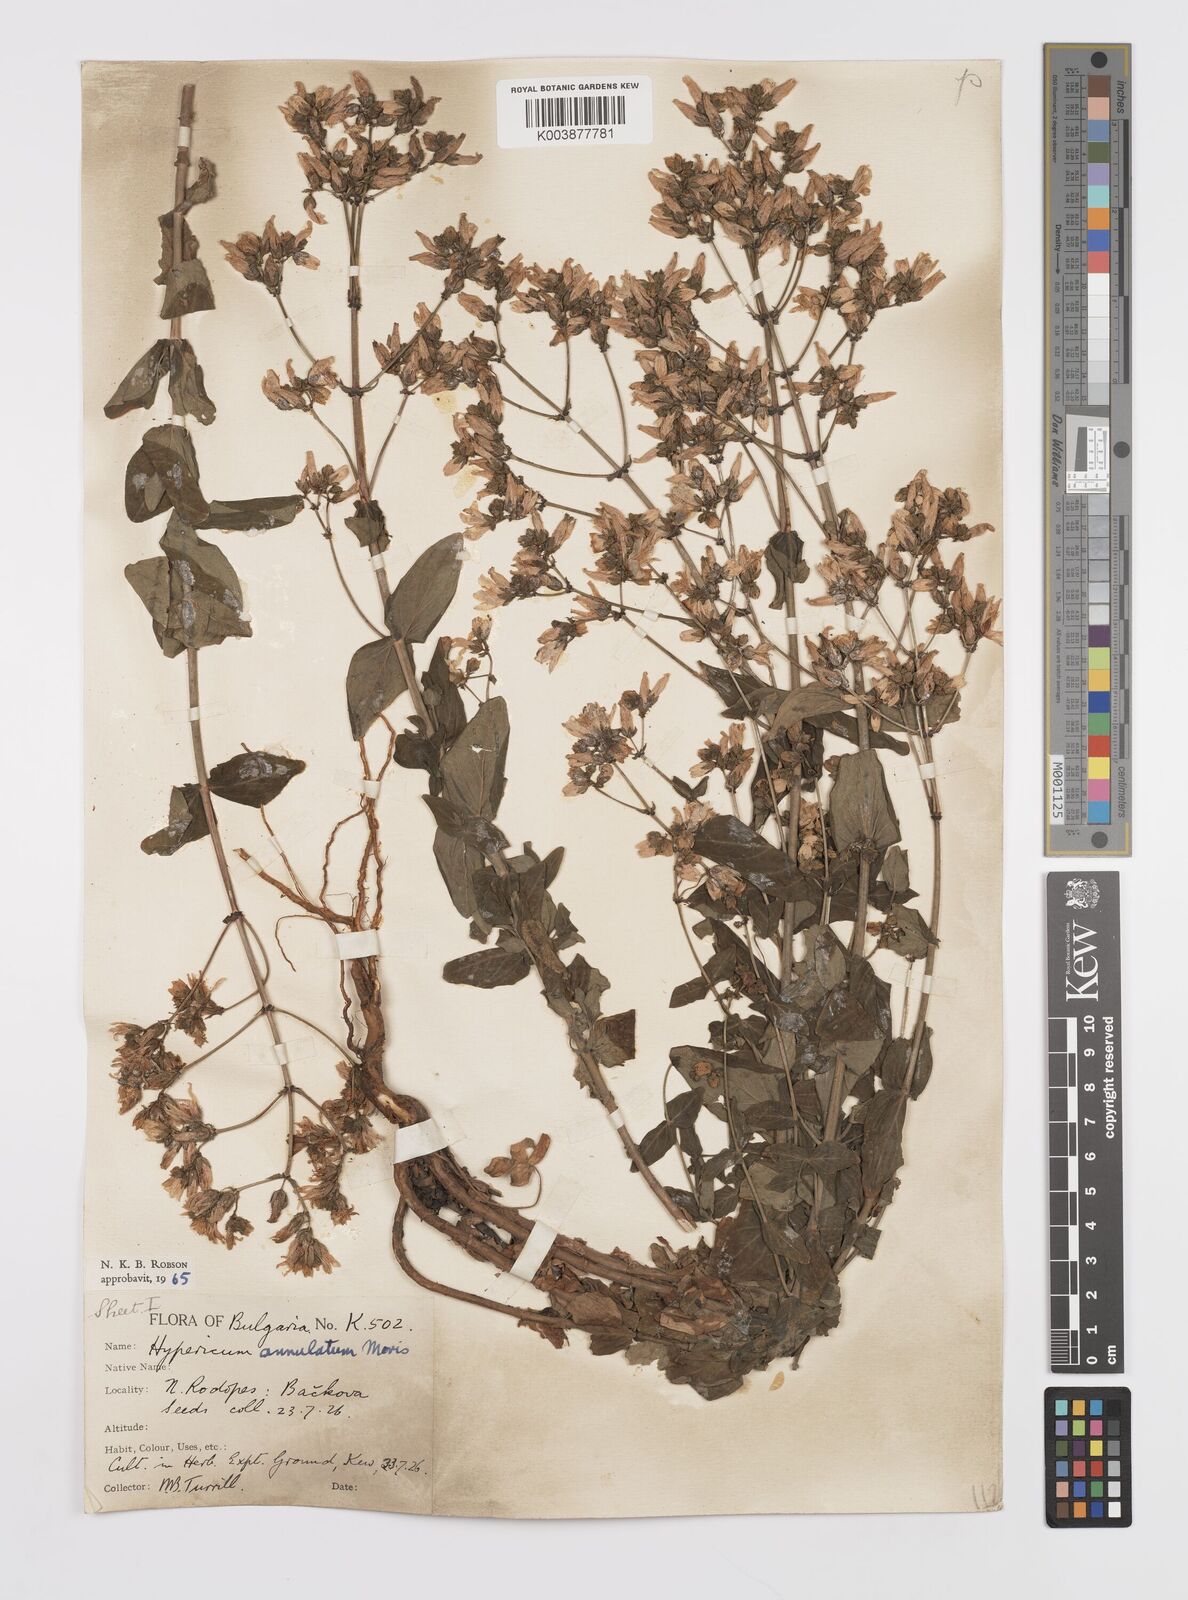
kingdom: Plantae
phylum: Tracheophyta
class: Magnoliopsida
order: Malpighiales
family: Hypericaceae
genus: Hypericum
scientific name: Hypericum annulatum
